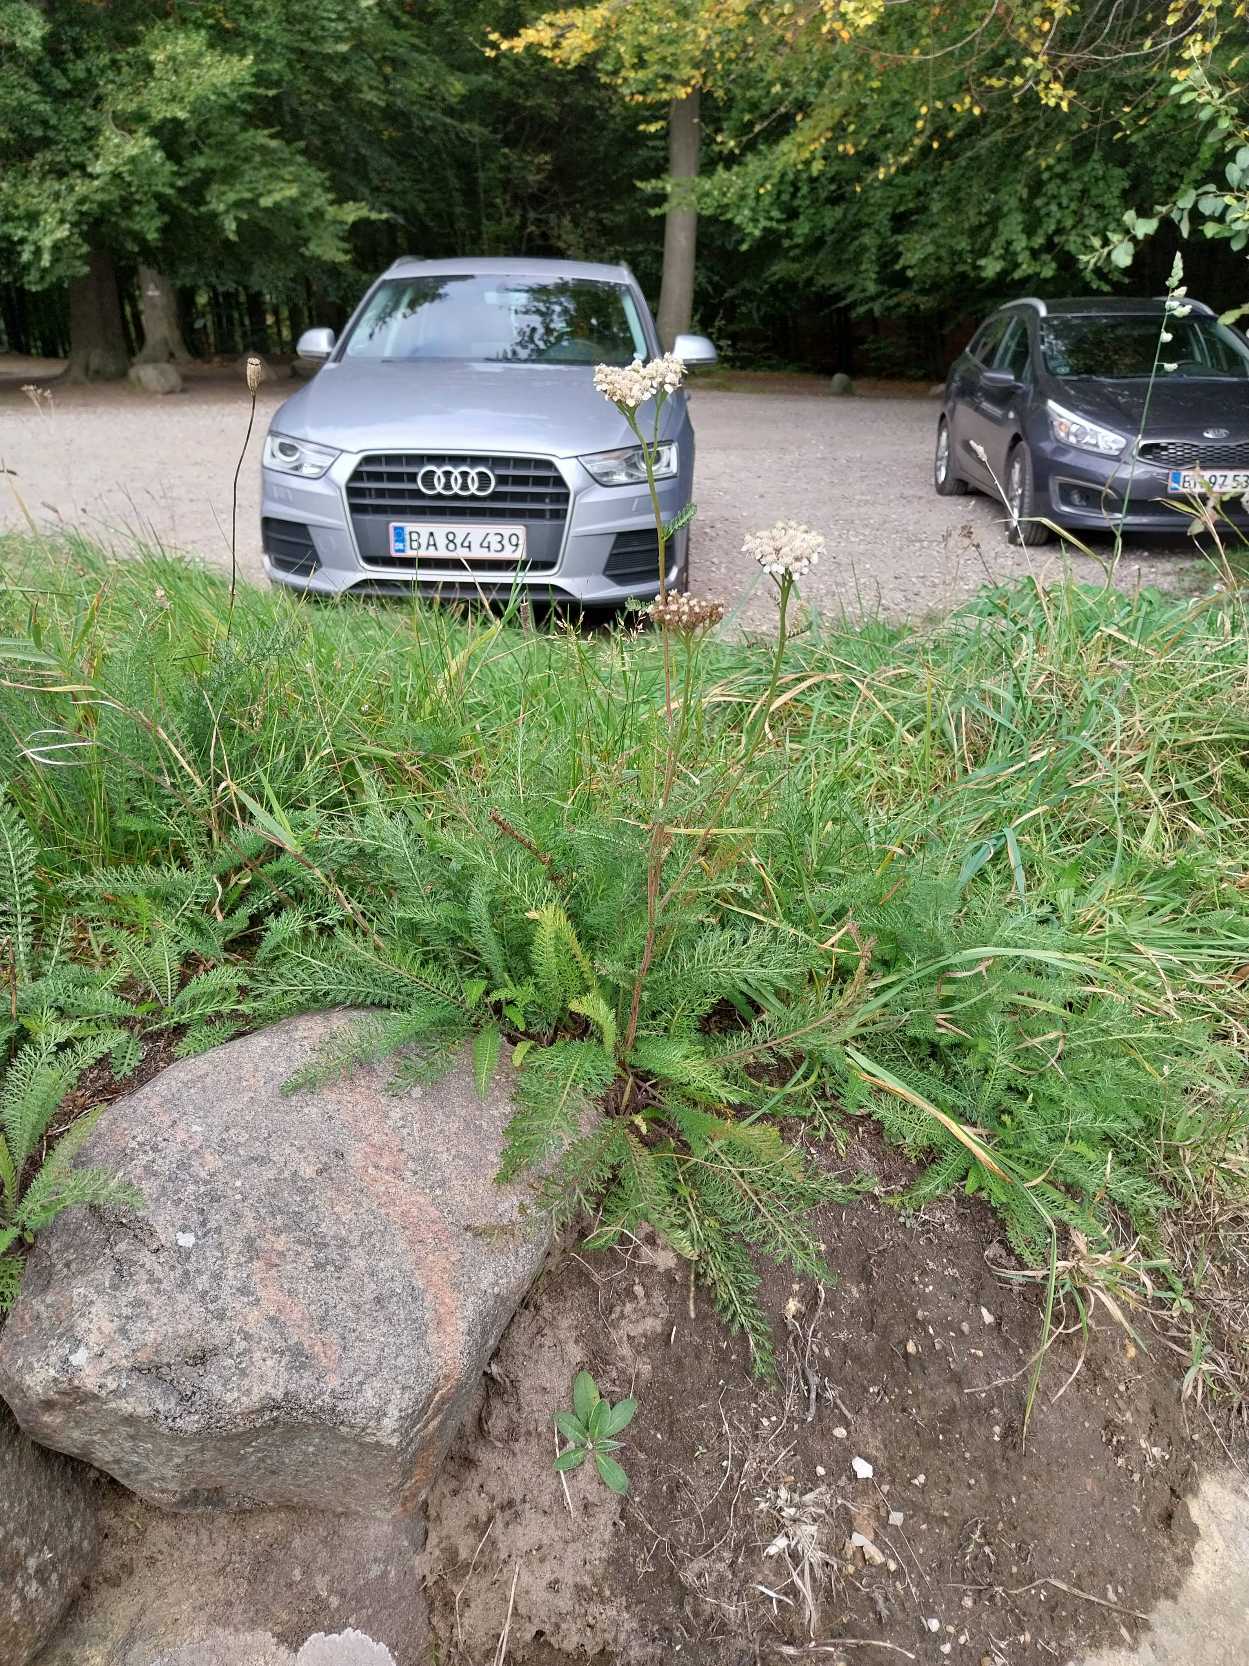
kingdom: Plantae
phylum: Tracheophyta
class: Magnoliopsida
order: Asterales
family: Asteraceae
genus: Achillea
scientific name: Achillea millefolium
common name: Almindelig røllike
